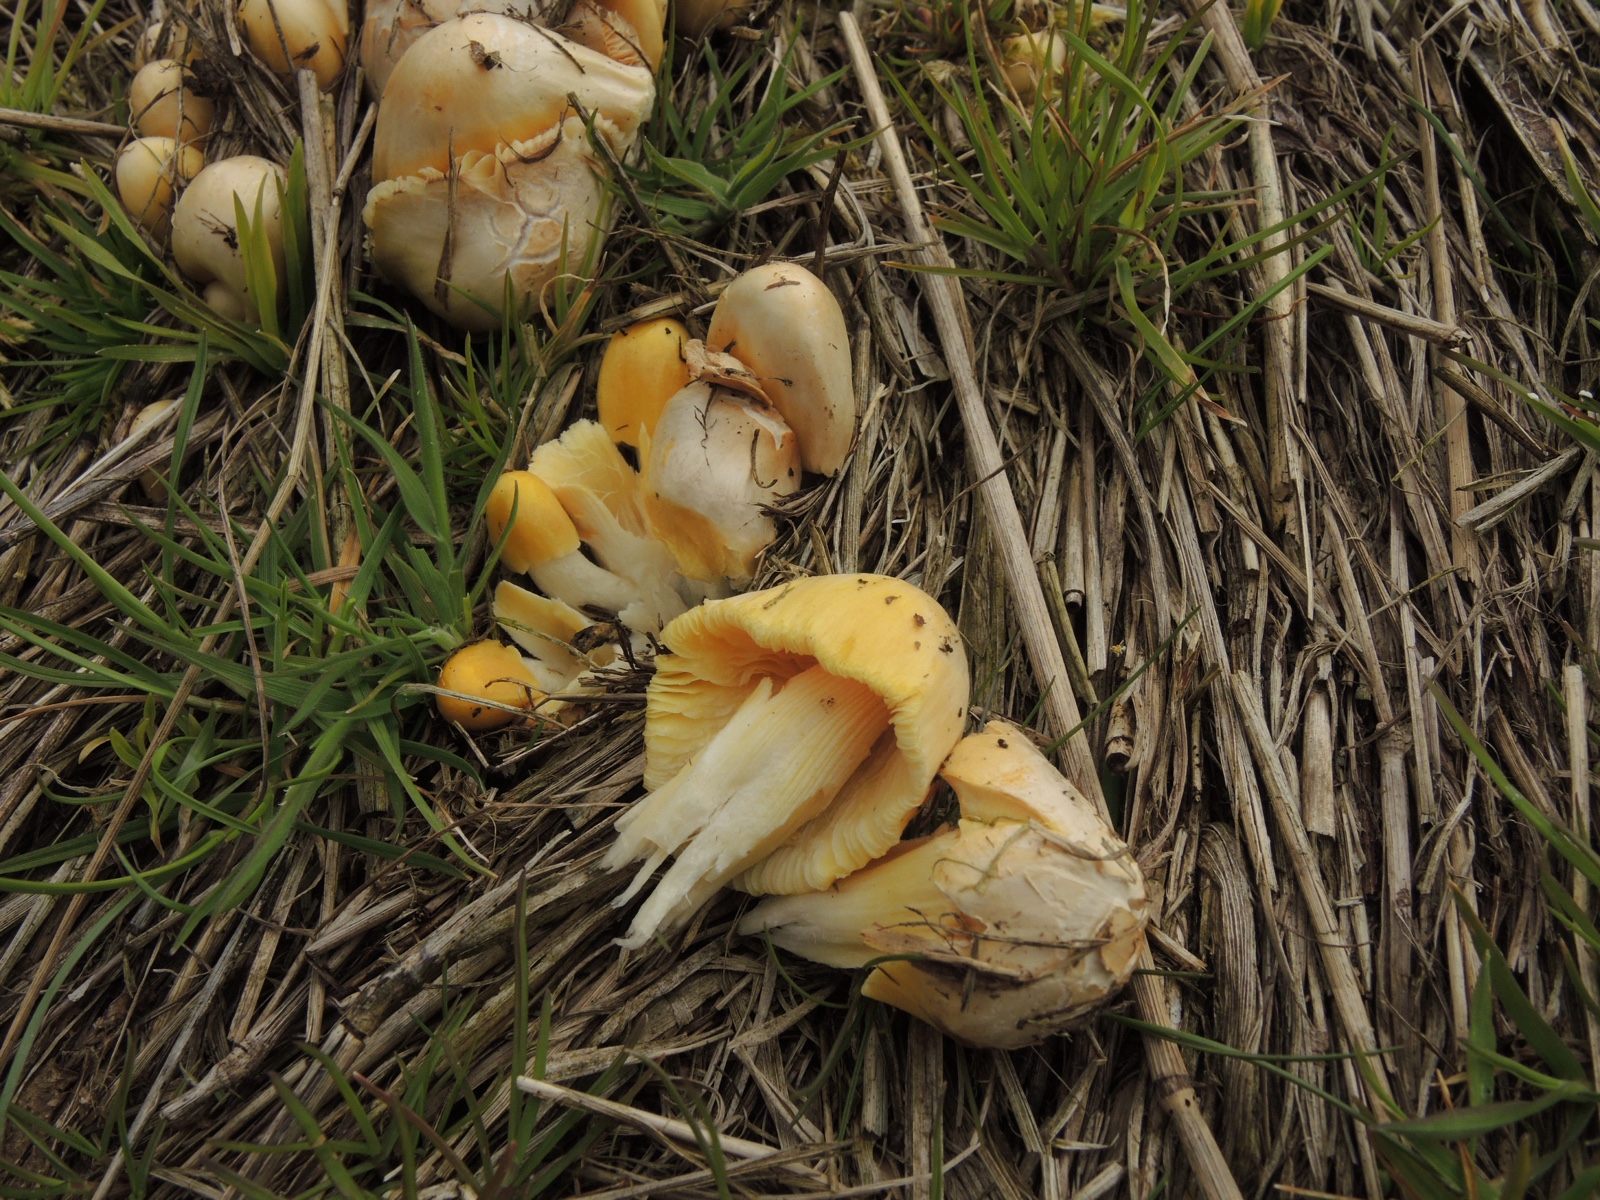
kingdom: Fungi
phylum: Basidiomycota
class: Agaricomycetes
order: Agaricales
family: Bolbitiaceae
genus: Bolbitius
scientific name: Bolbitius titubans
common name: almindelig gulhat
